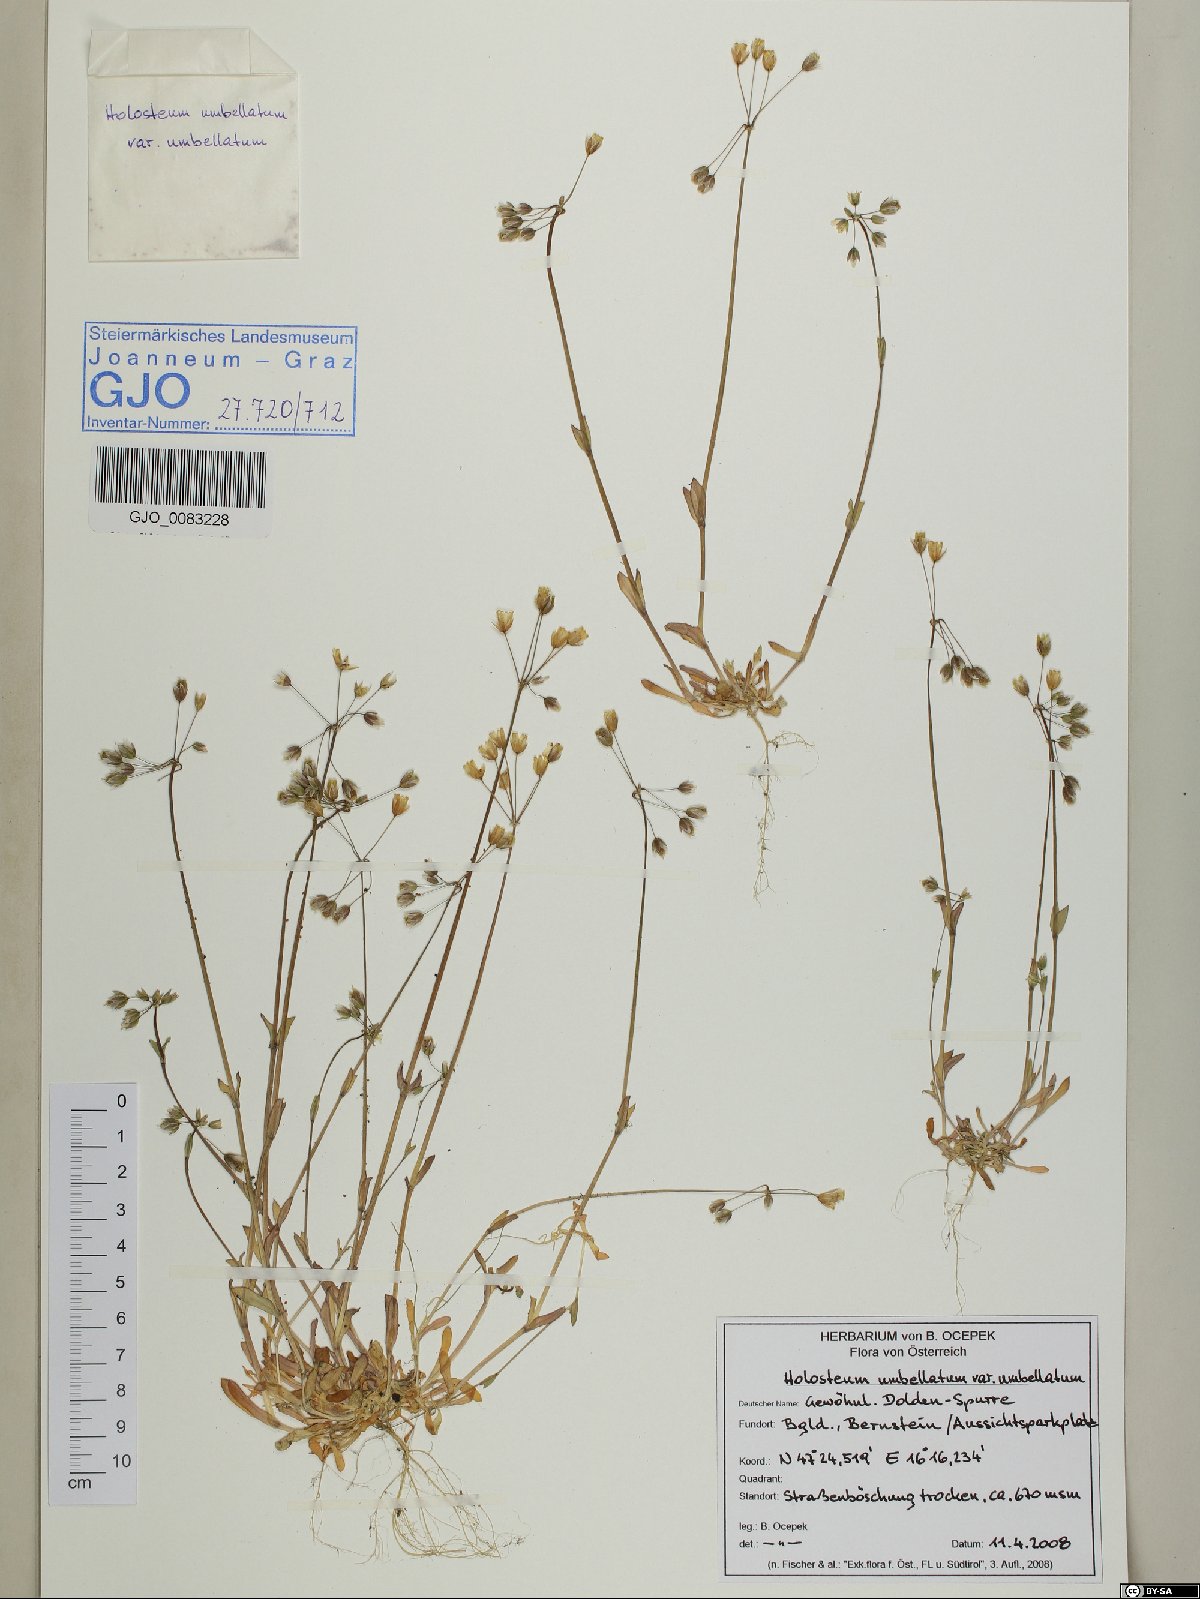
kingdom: Plantae
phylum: Tracheophyta
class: Magnoliopsida
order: Caryophyllales
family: Caryophyllaceae
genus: Holosteum
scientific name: Holosteum umbellatum
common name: Jagged chickweed
